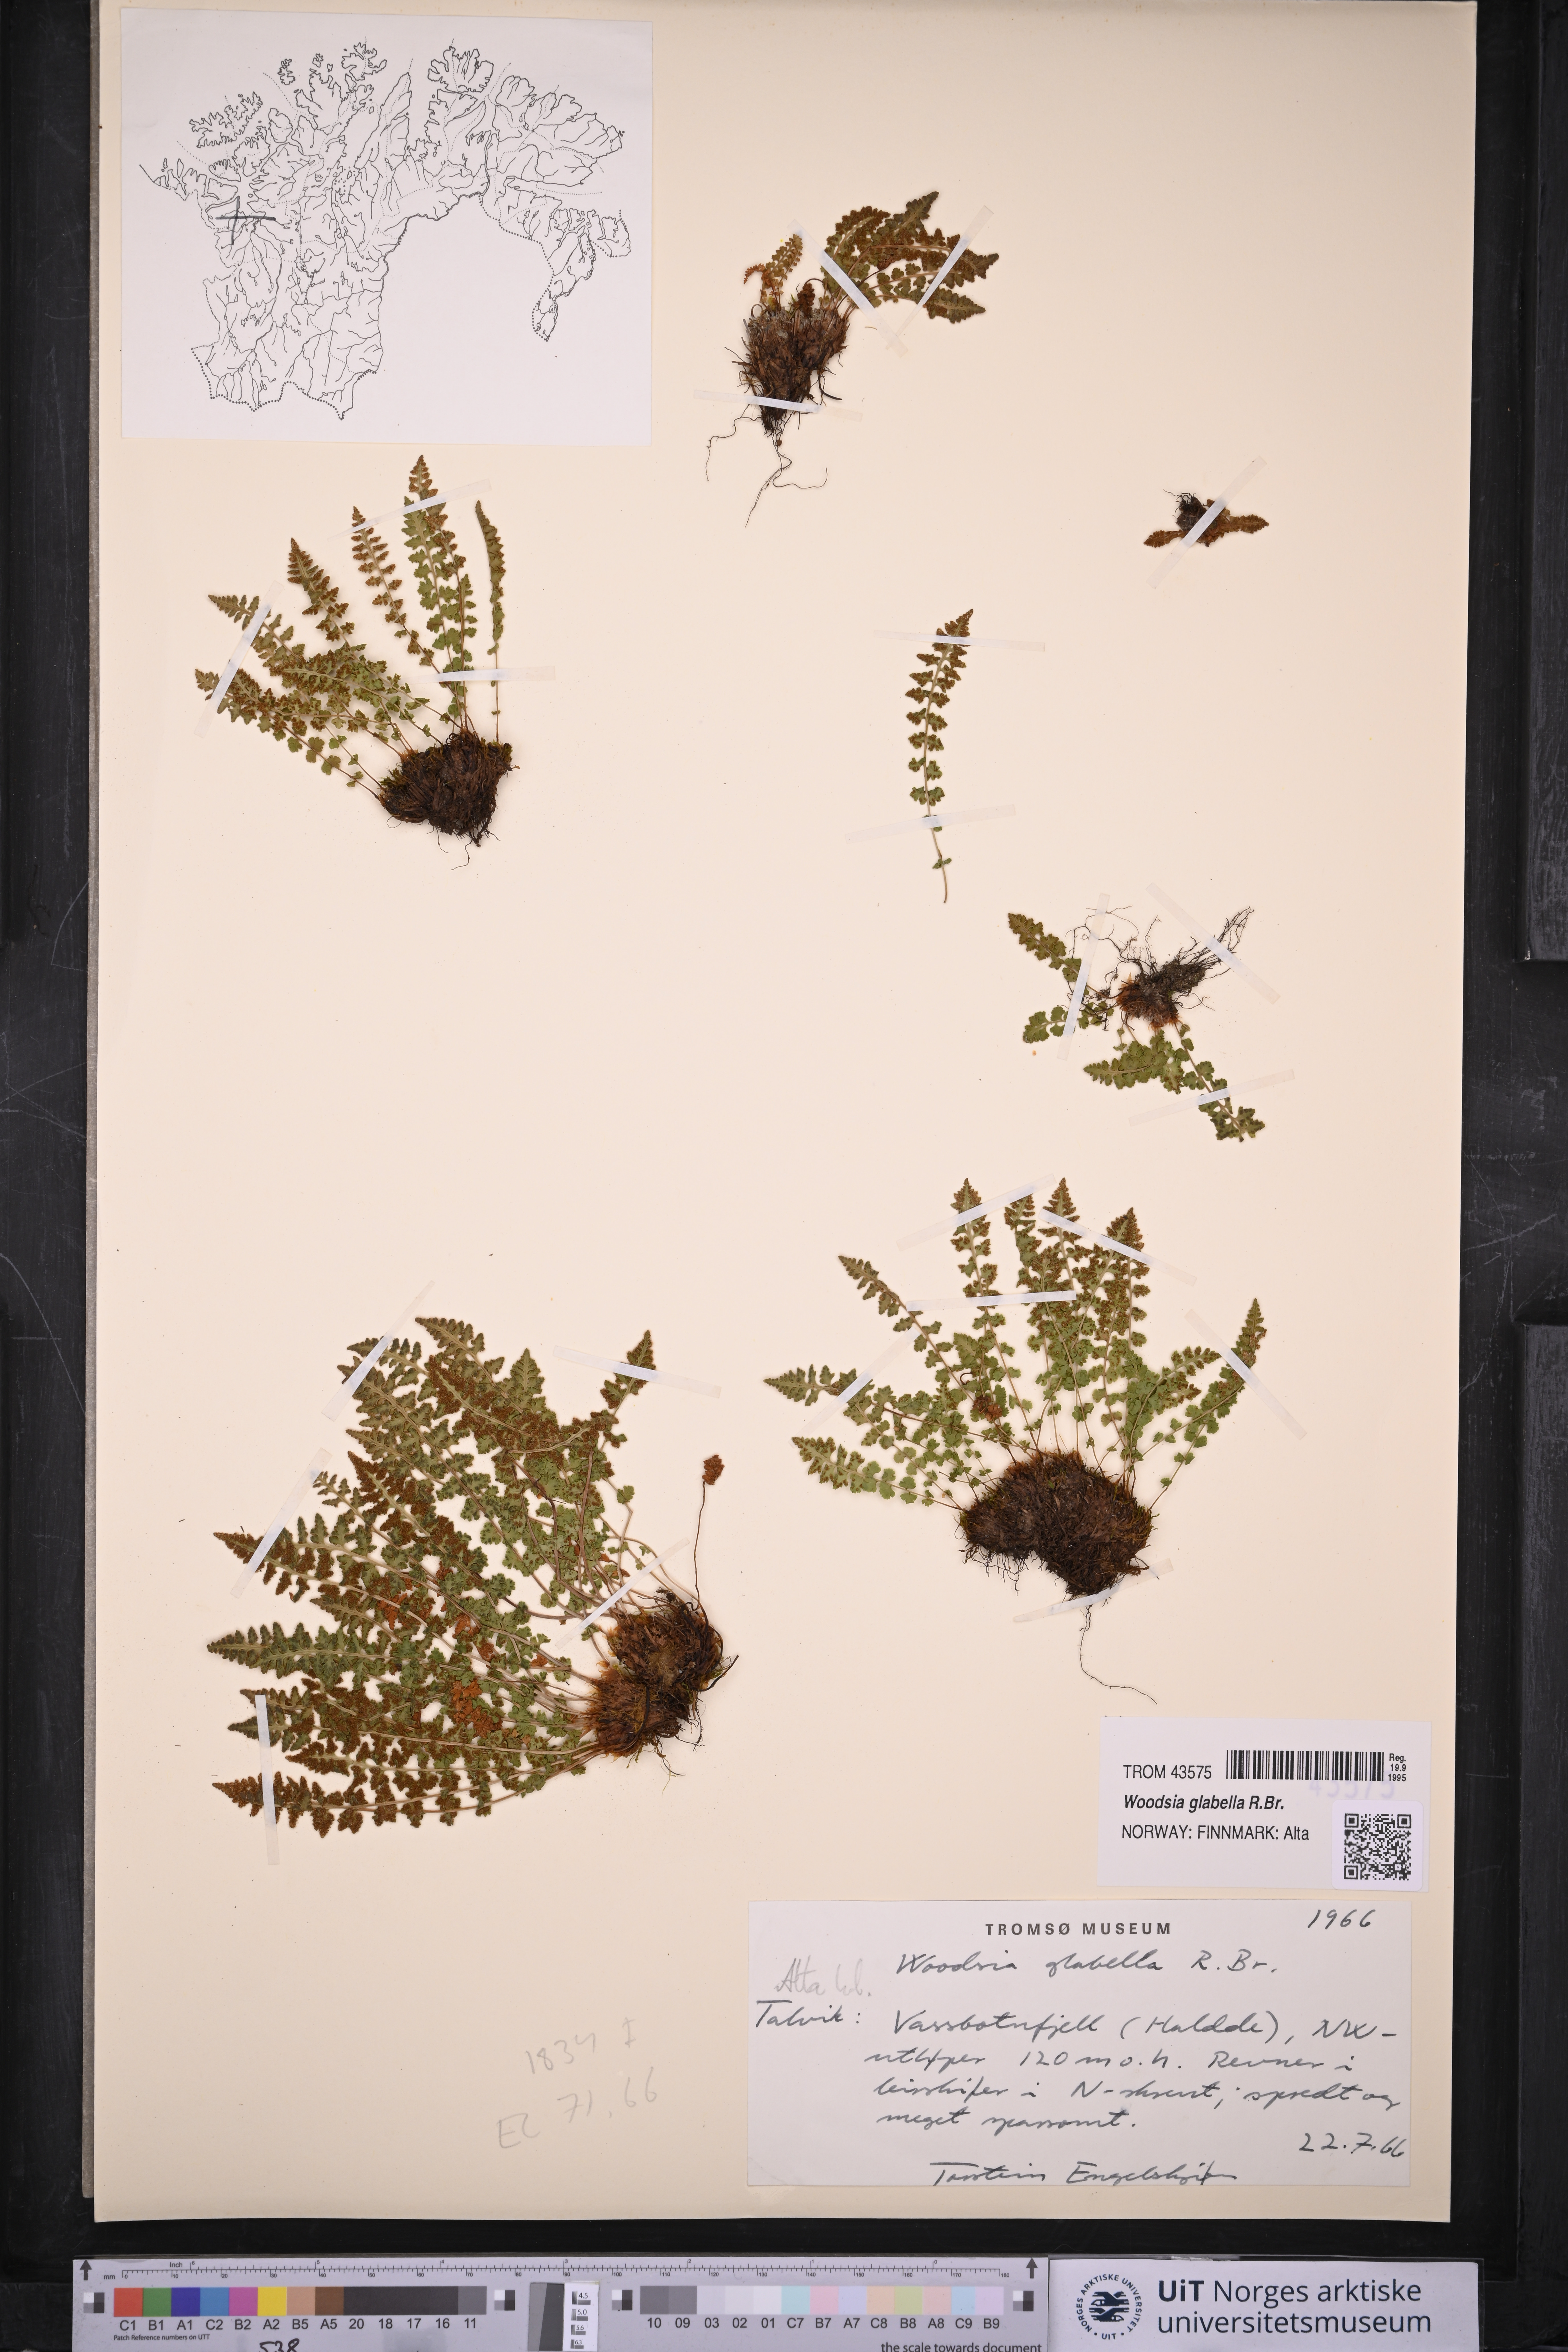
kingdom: Plantae
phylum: Tracheophyta
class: Polypodiopsida
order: Polypodiales
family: Woodsiaceae
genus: Woodsia
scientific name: Woodsia glabella
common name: Smooth woodsia
